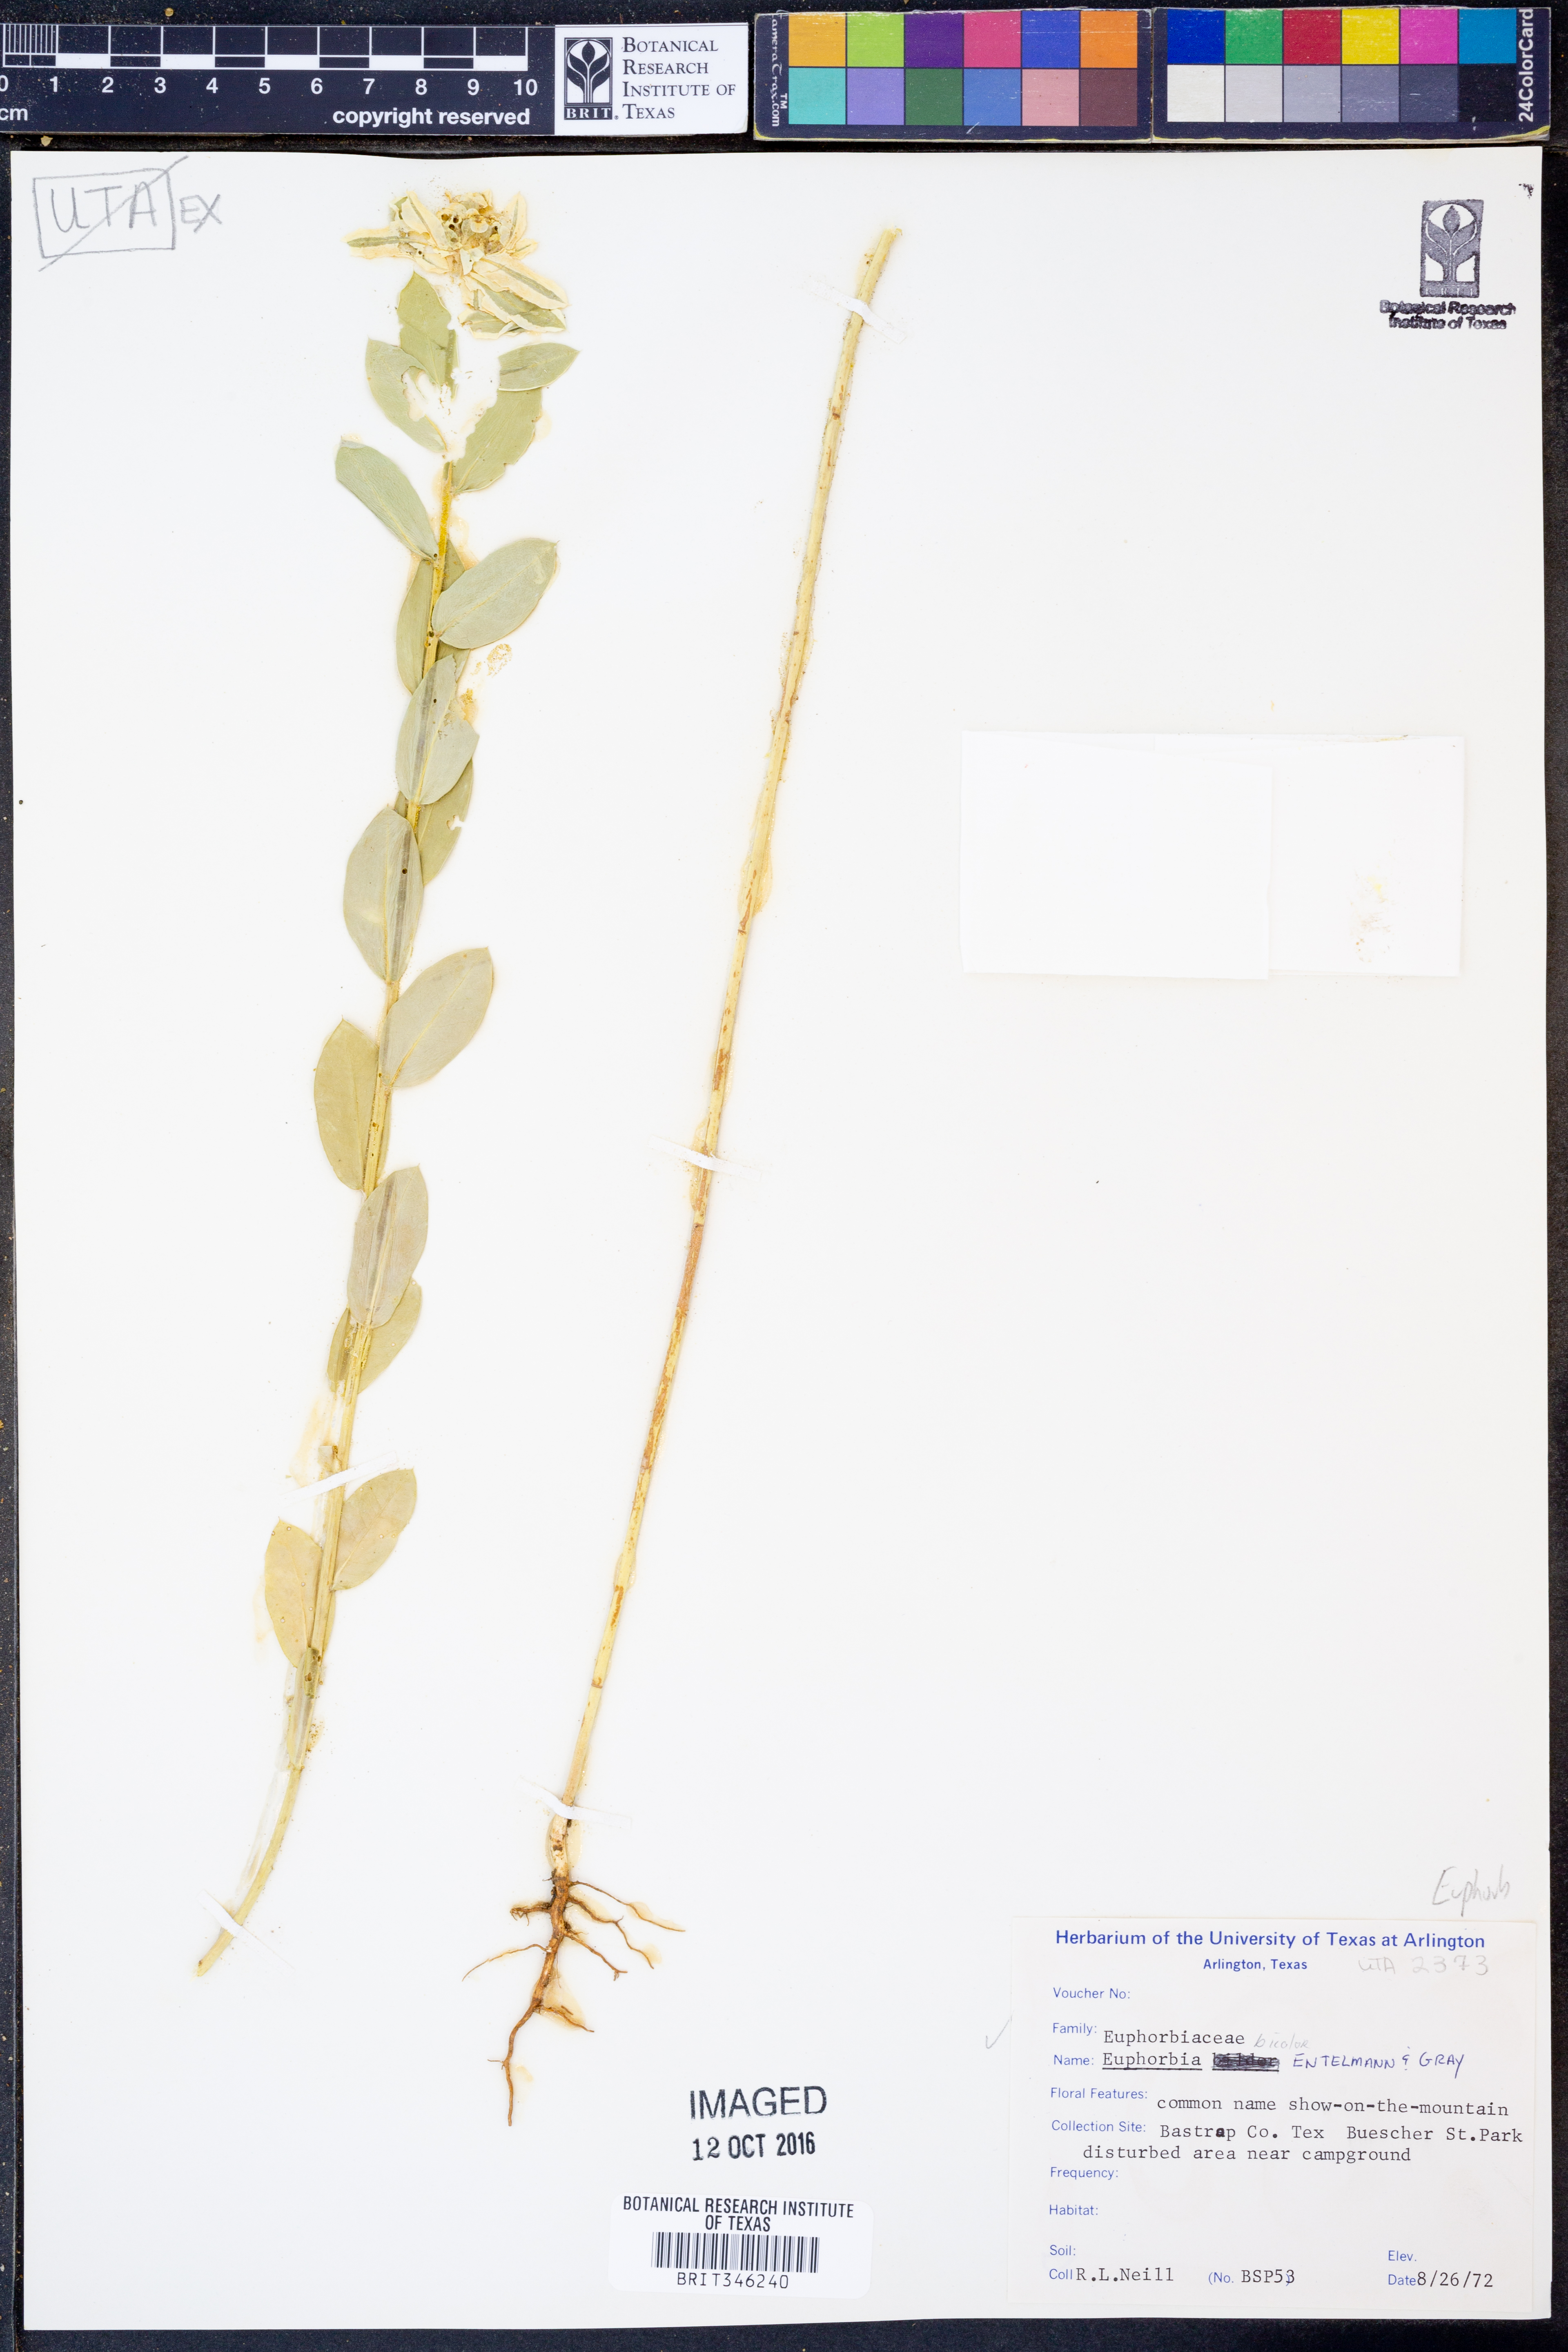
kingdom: Plantae
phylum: Tracheophyta
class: Magnoliopsida
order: Malpighiales
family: Euphorbiaceae
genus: Euphorbia
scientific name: Euphorbia bicolor
